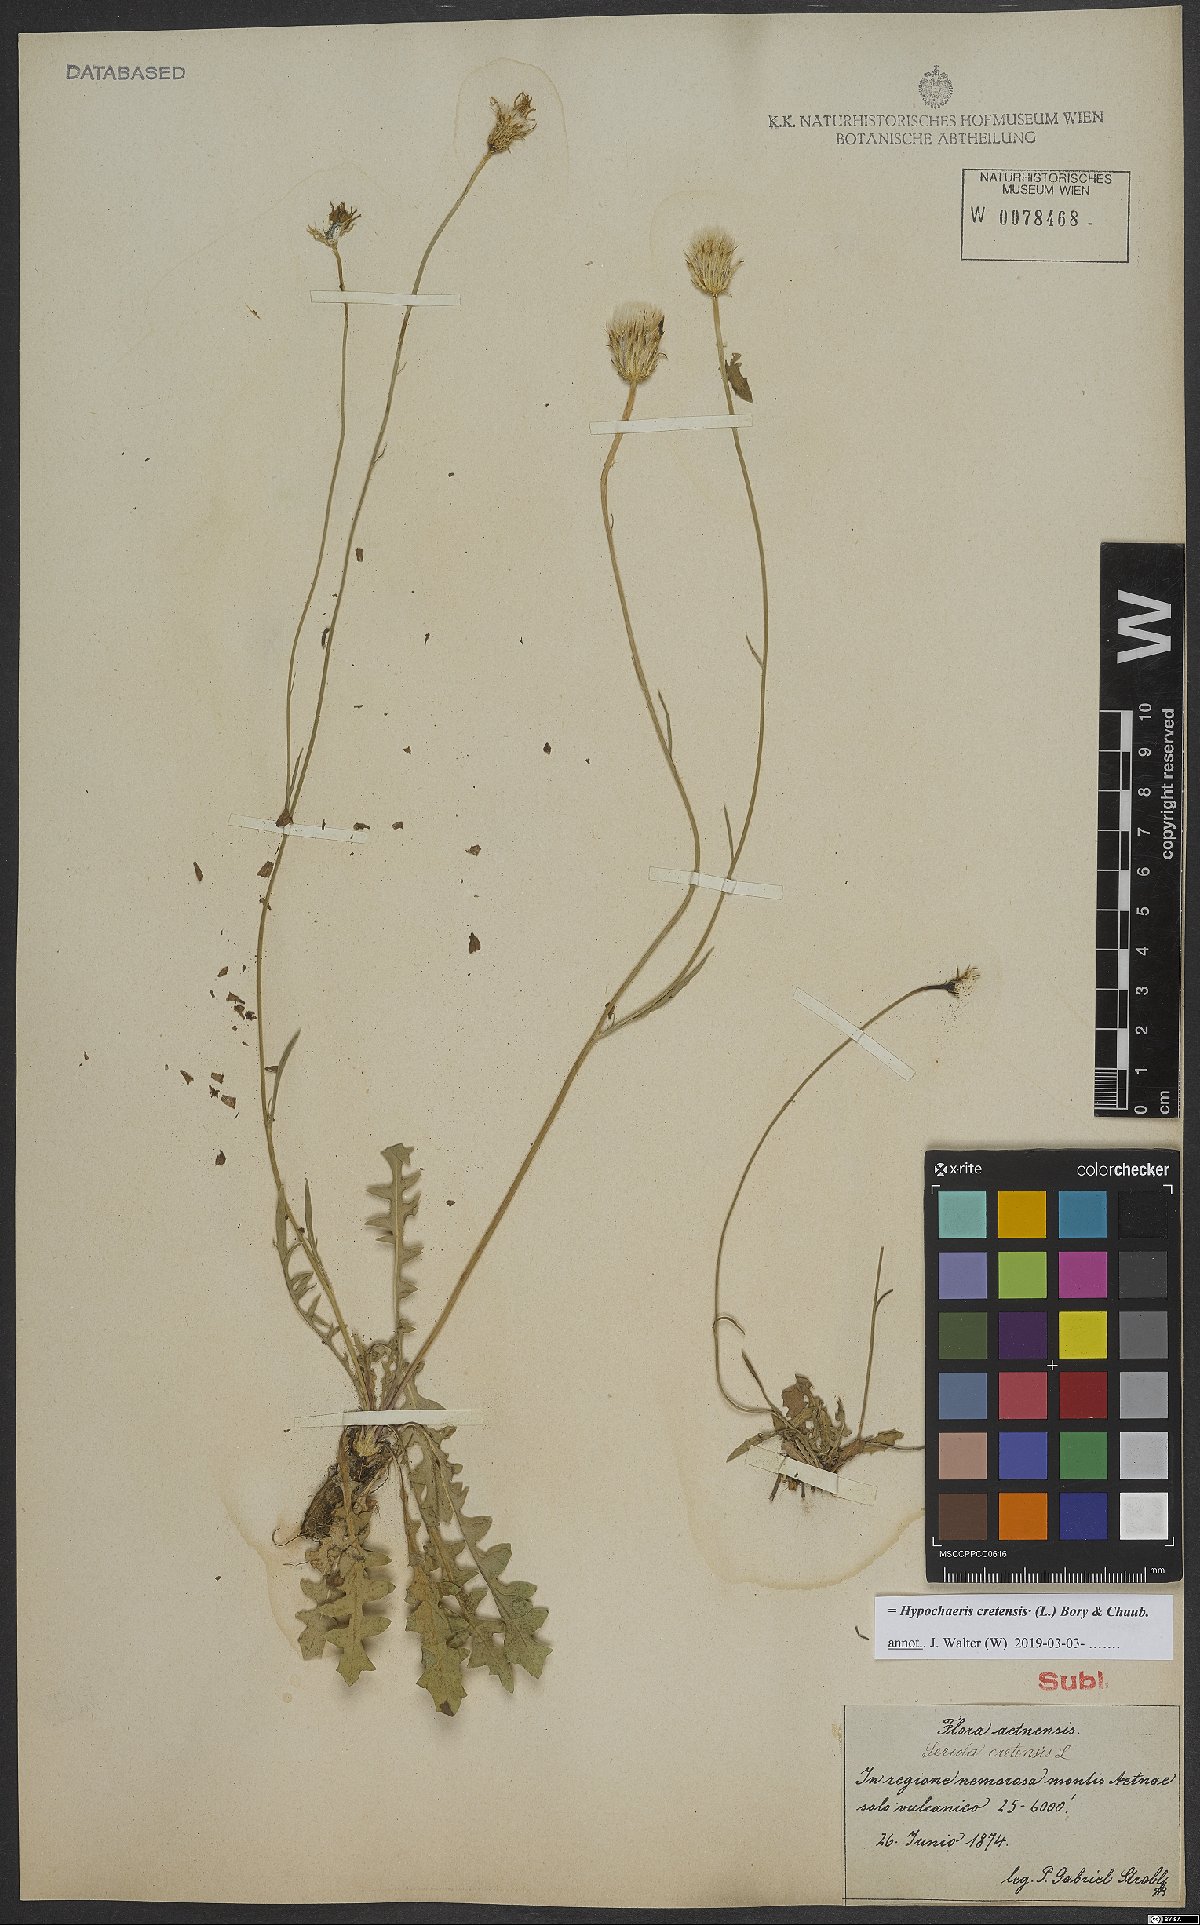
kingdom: Plantae
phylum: Tracheophyta
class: Magnoliopsida
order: Asterales
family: Asteraceae
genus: Hypochaeris
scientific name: Hypochaeris cretensis
